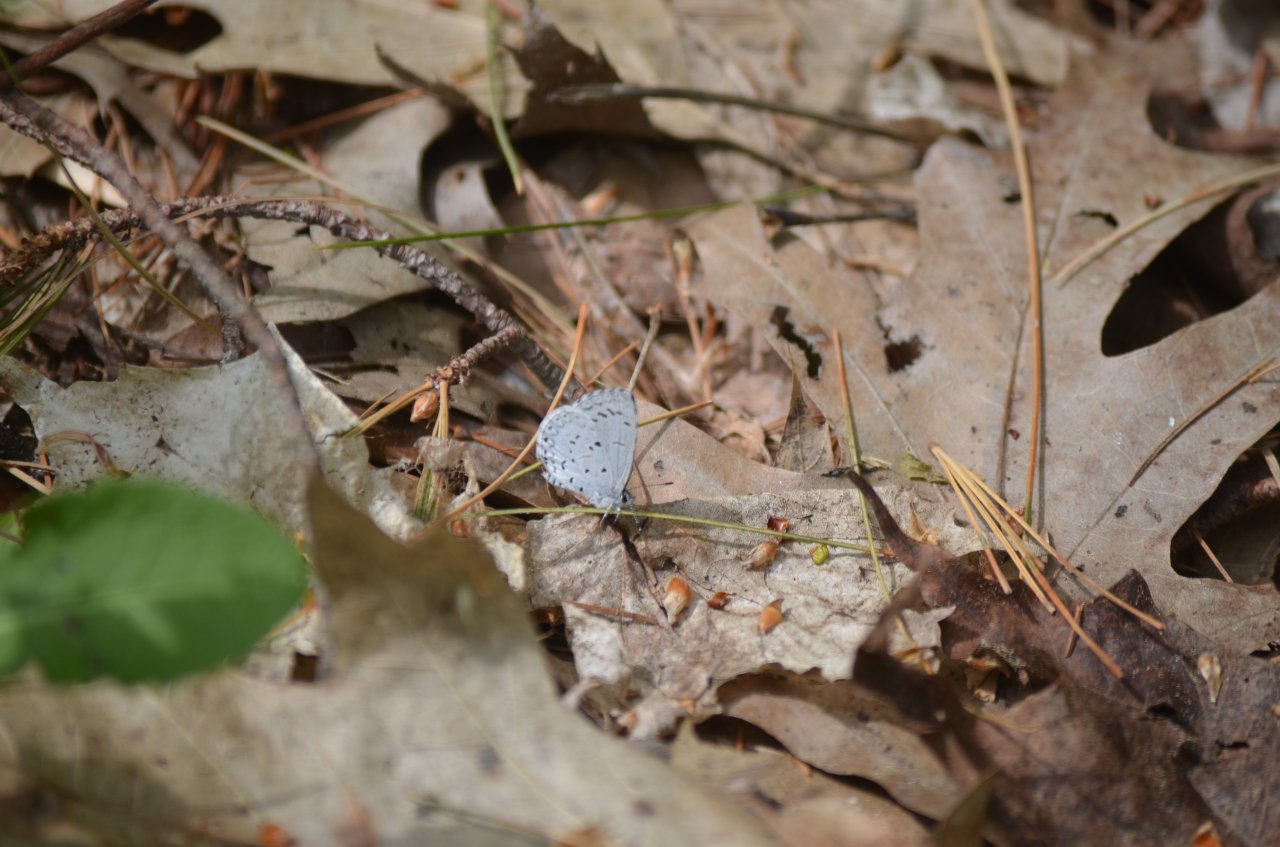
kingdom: Animalia
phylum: Arthropoda
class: Insecta
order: Lepidoptera
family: Lycaenidae
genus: Celastrina
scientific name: Celastrina lucia
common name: Northern Spring Azure
